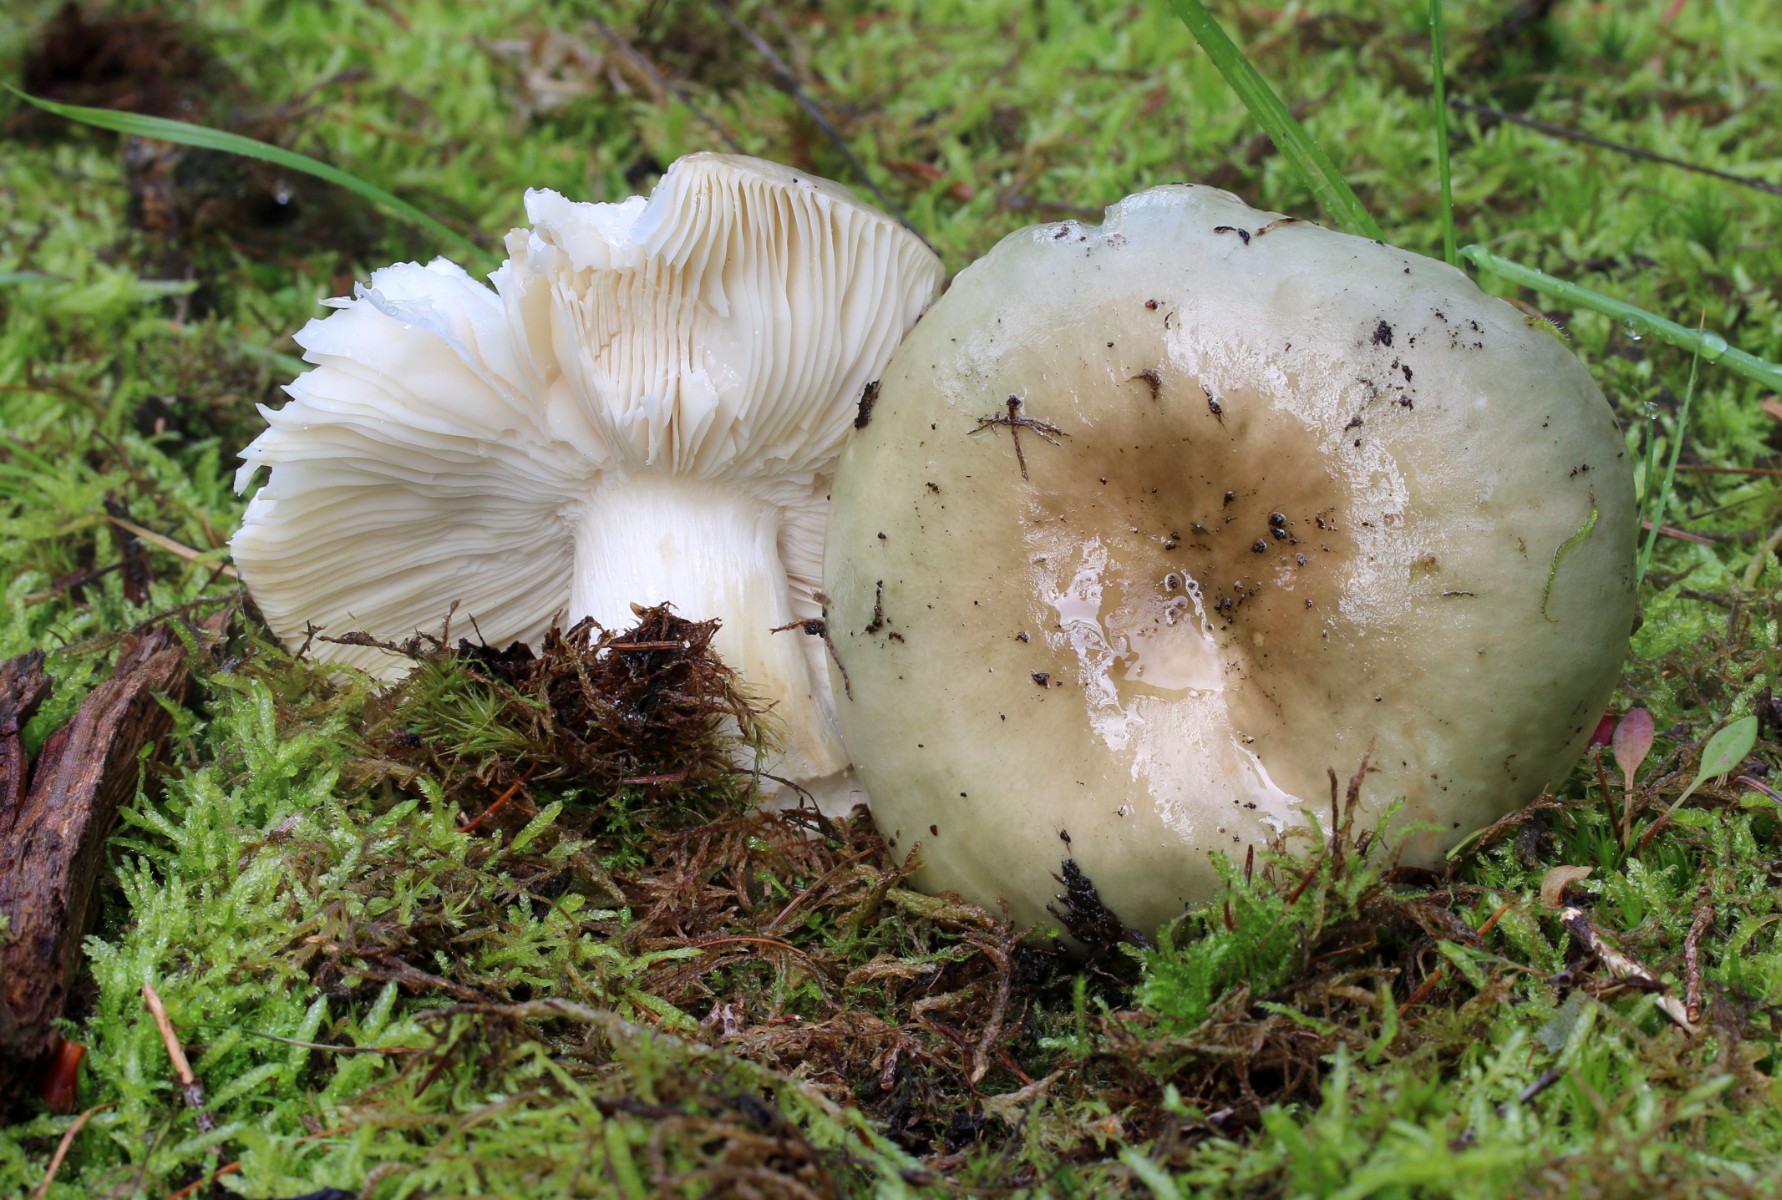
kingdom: Fungi
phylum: Basidiomycota
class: Agaricomycetes
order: Russulales
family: Russulaceae
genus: Russula
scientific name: Russula aeruginea
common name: græsgrøn skørhat
